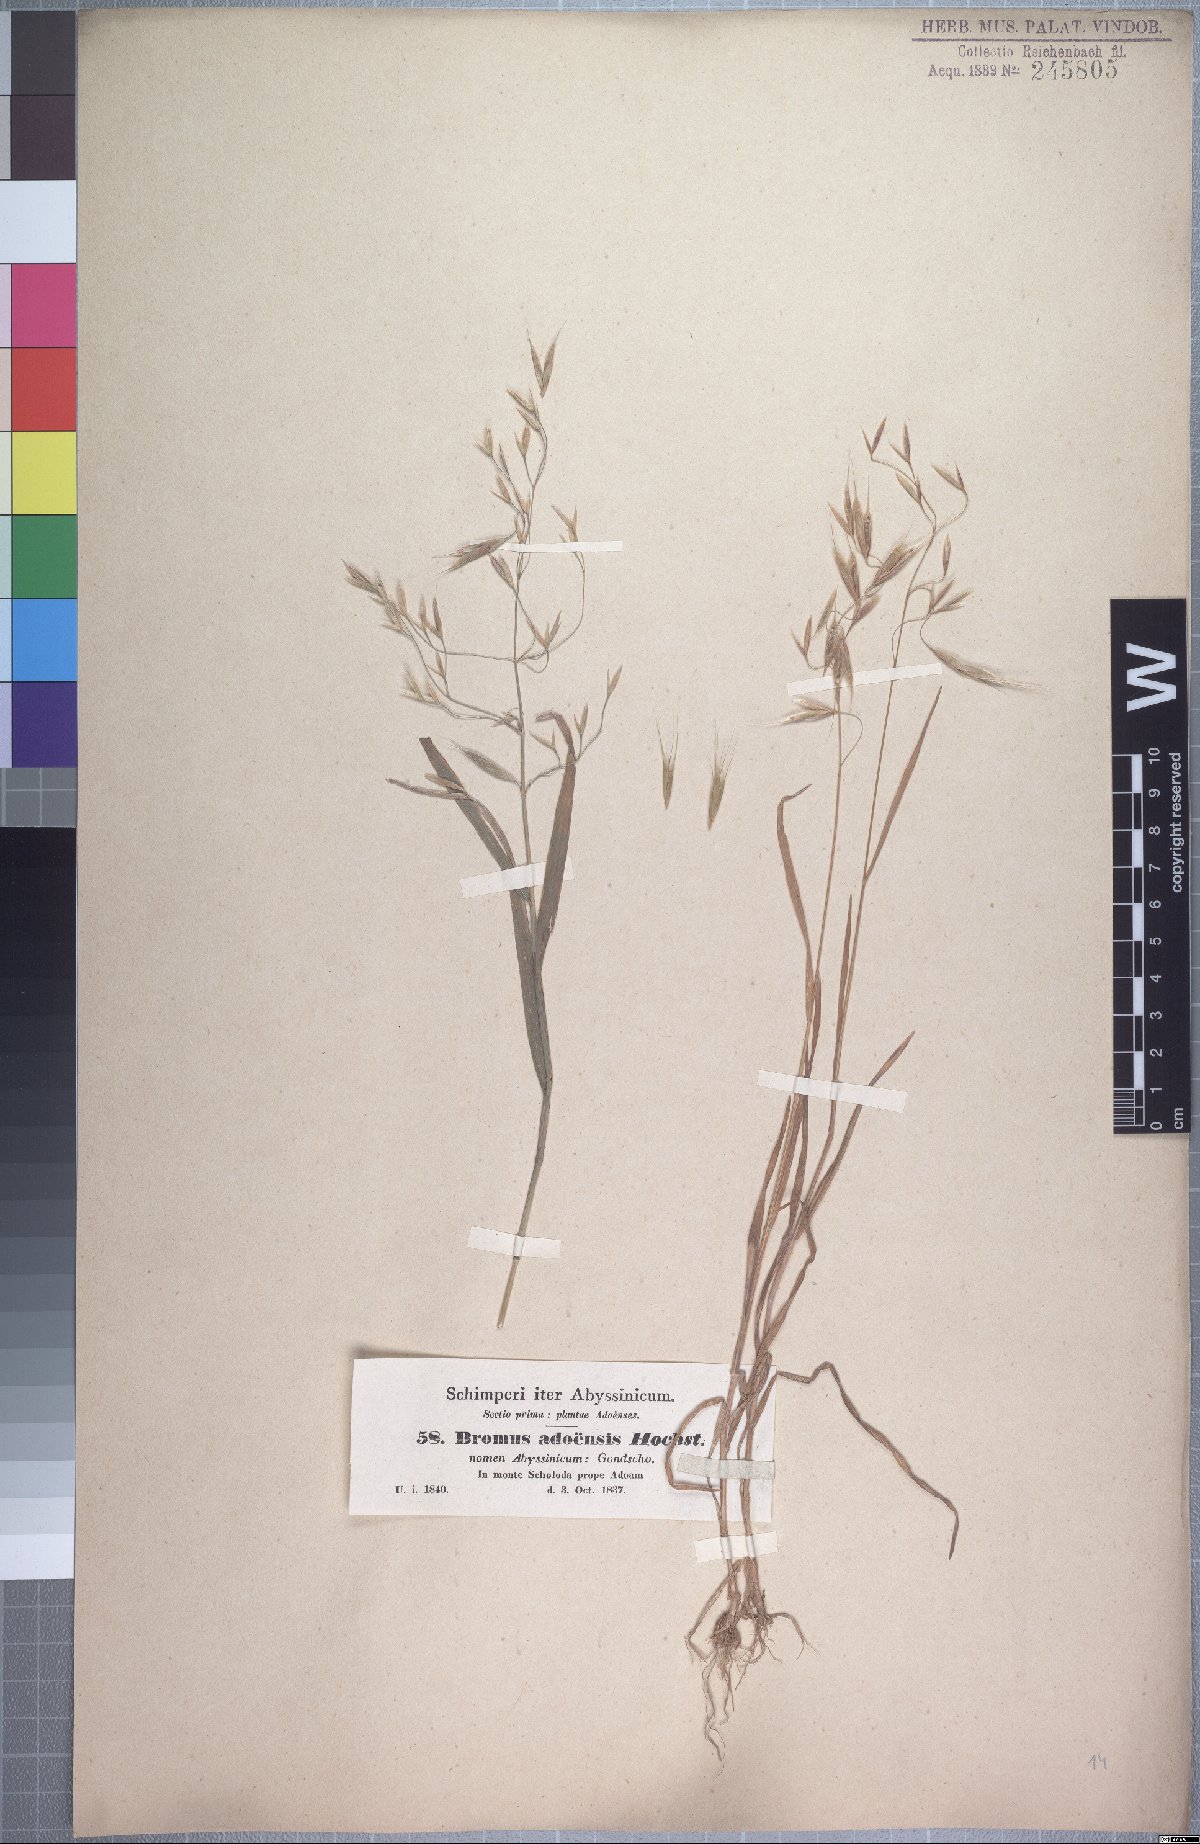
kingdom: Plantae
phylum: Tracheophyta
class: Liliopsida
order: Poales
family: Poaceae
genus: Bromus
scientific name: Bromus pectinatus
